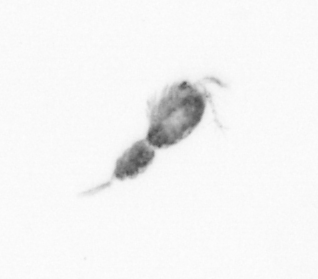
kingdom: Animalia
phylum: Arthropoda
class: Copepoda
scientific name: Copepoda
